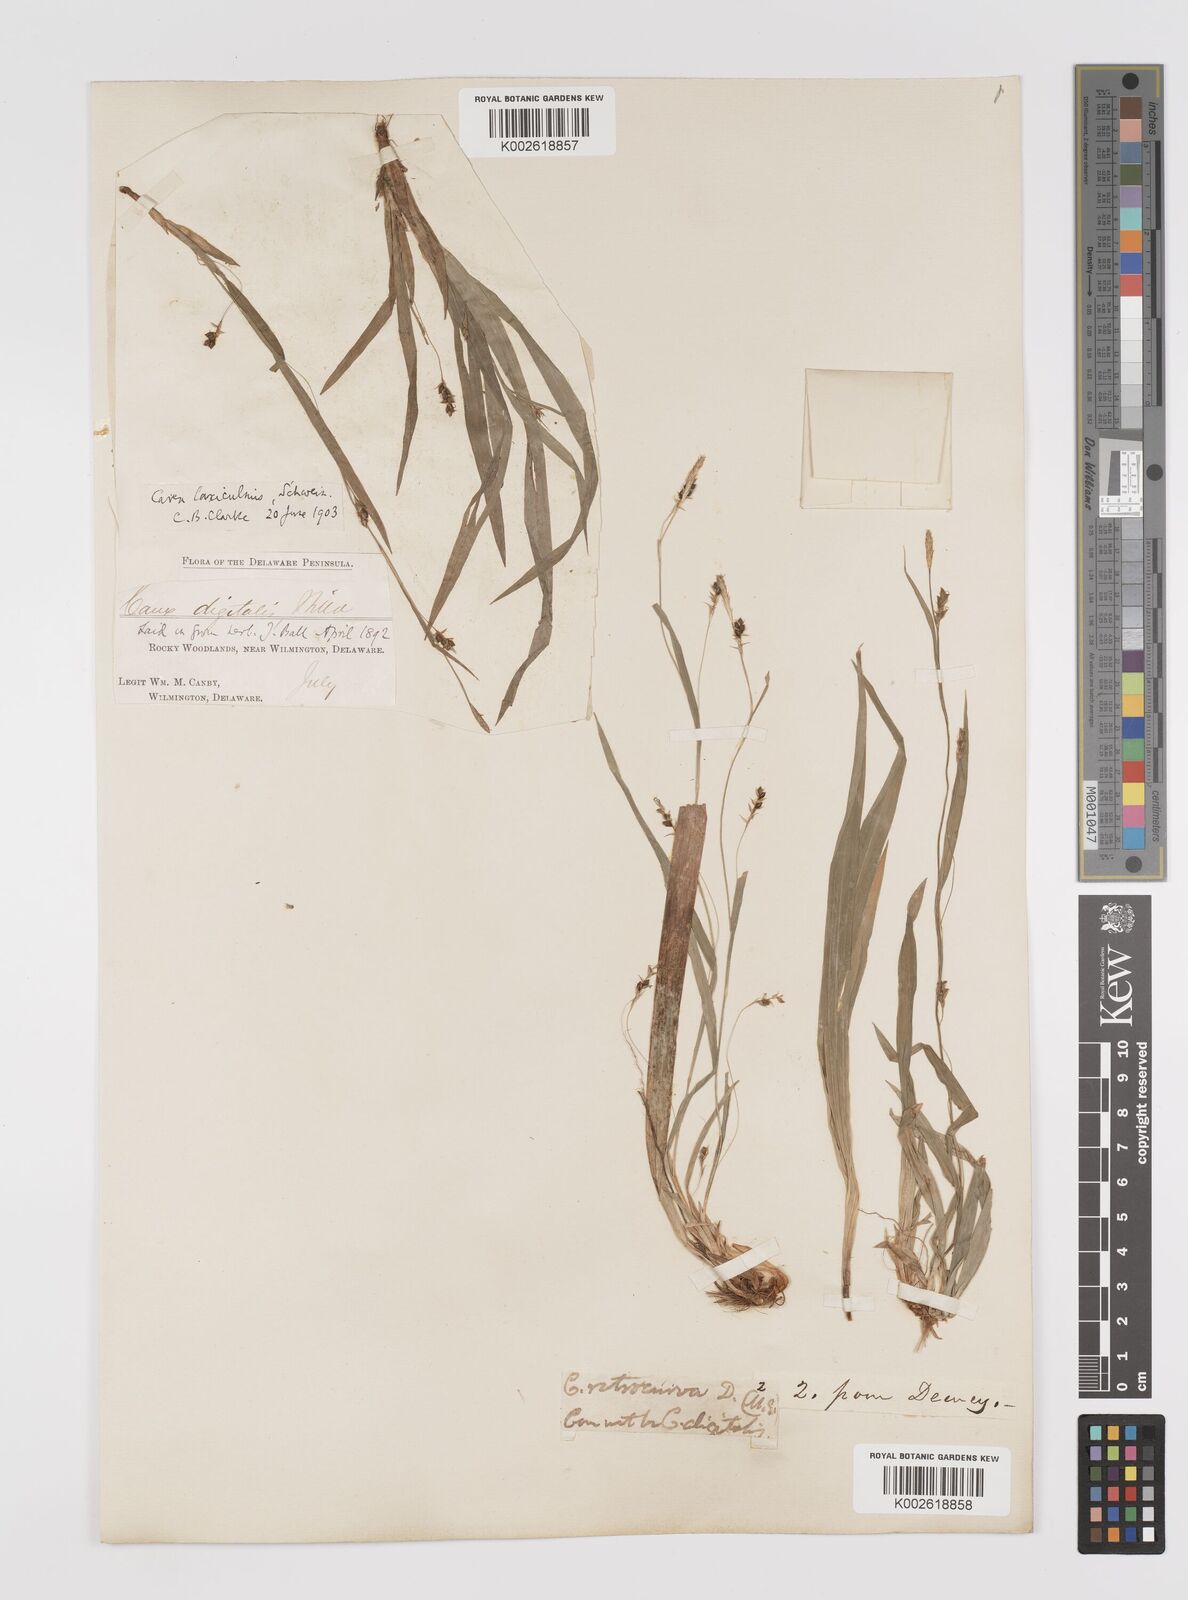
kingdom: Plantae
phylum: Tracheophyta
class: Liliopsida
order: Poales
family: Cyperaceae
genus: Carex
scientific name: Carex laxiculmis
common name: Spreading sedge
